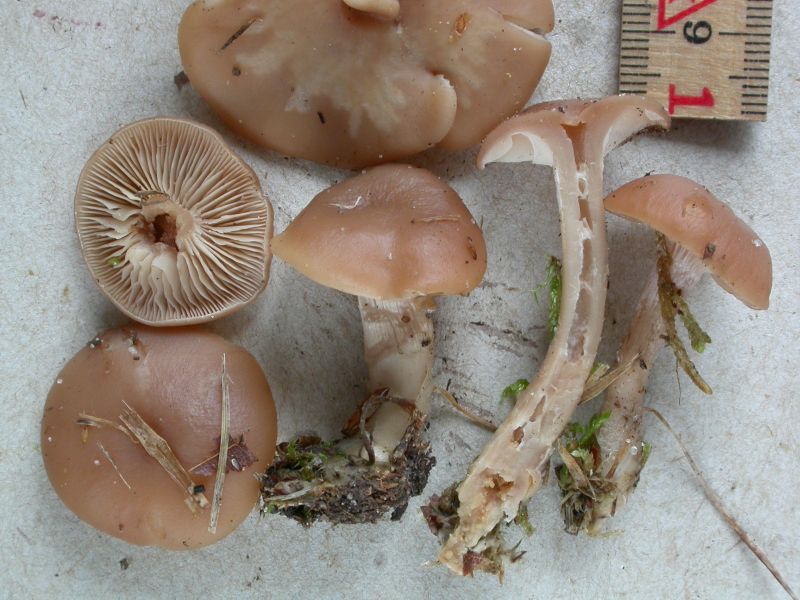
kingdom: Fungi
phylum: Basidiomycota
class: Agaricomycetes
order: Agaricales
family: Tricholomataceae
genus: Lepista
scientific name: Lepista sordida
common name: spinkel hekseringshat
